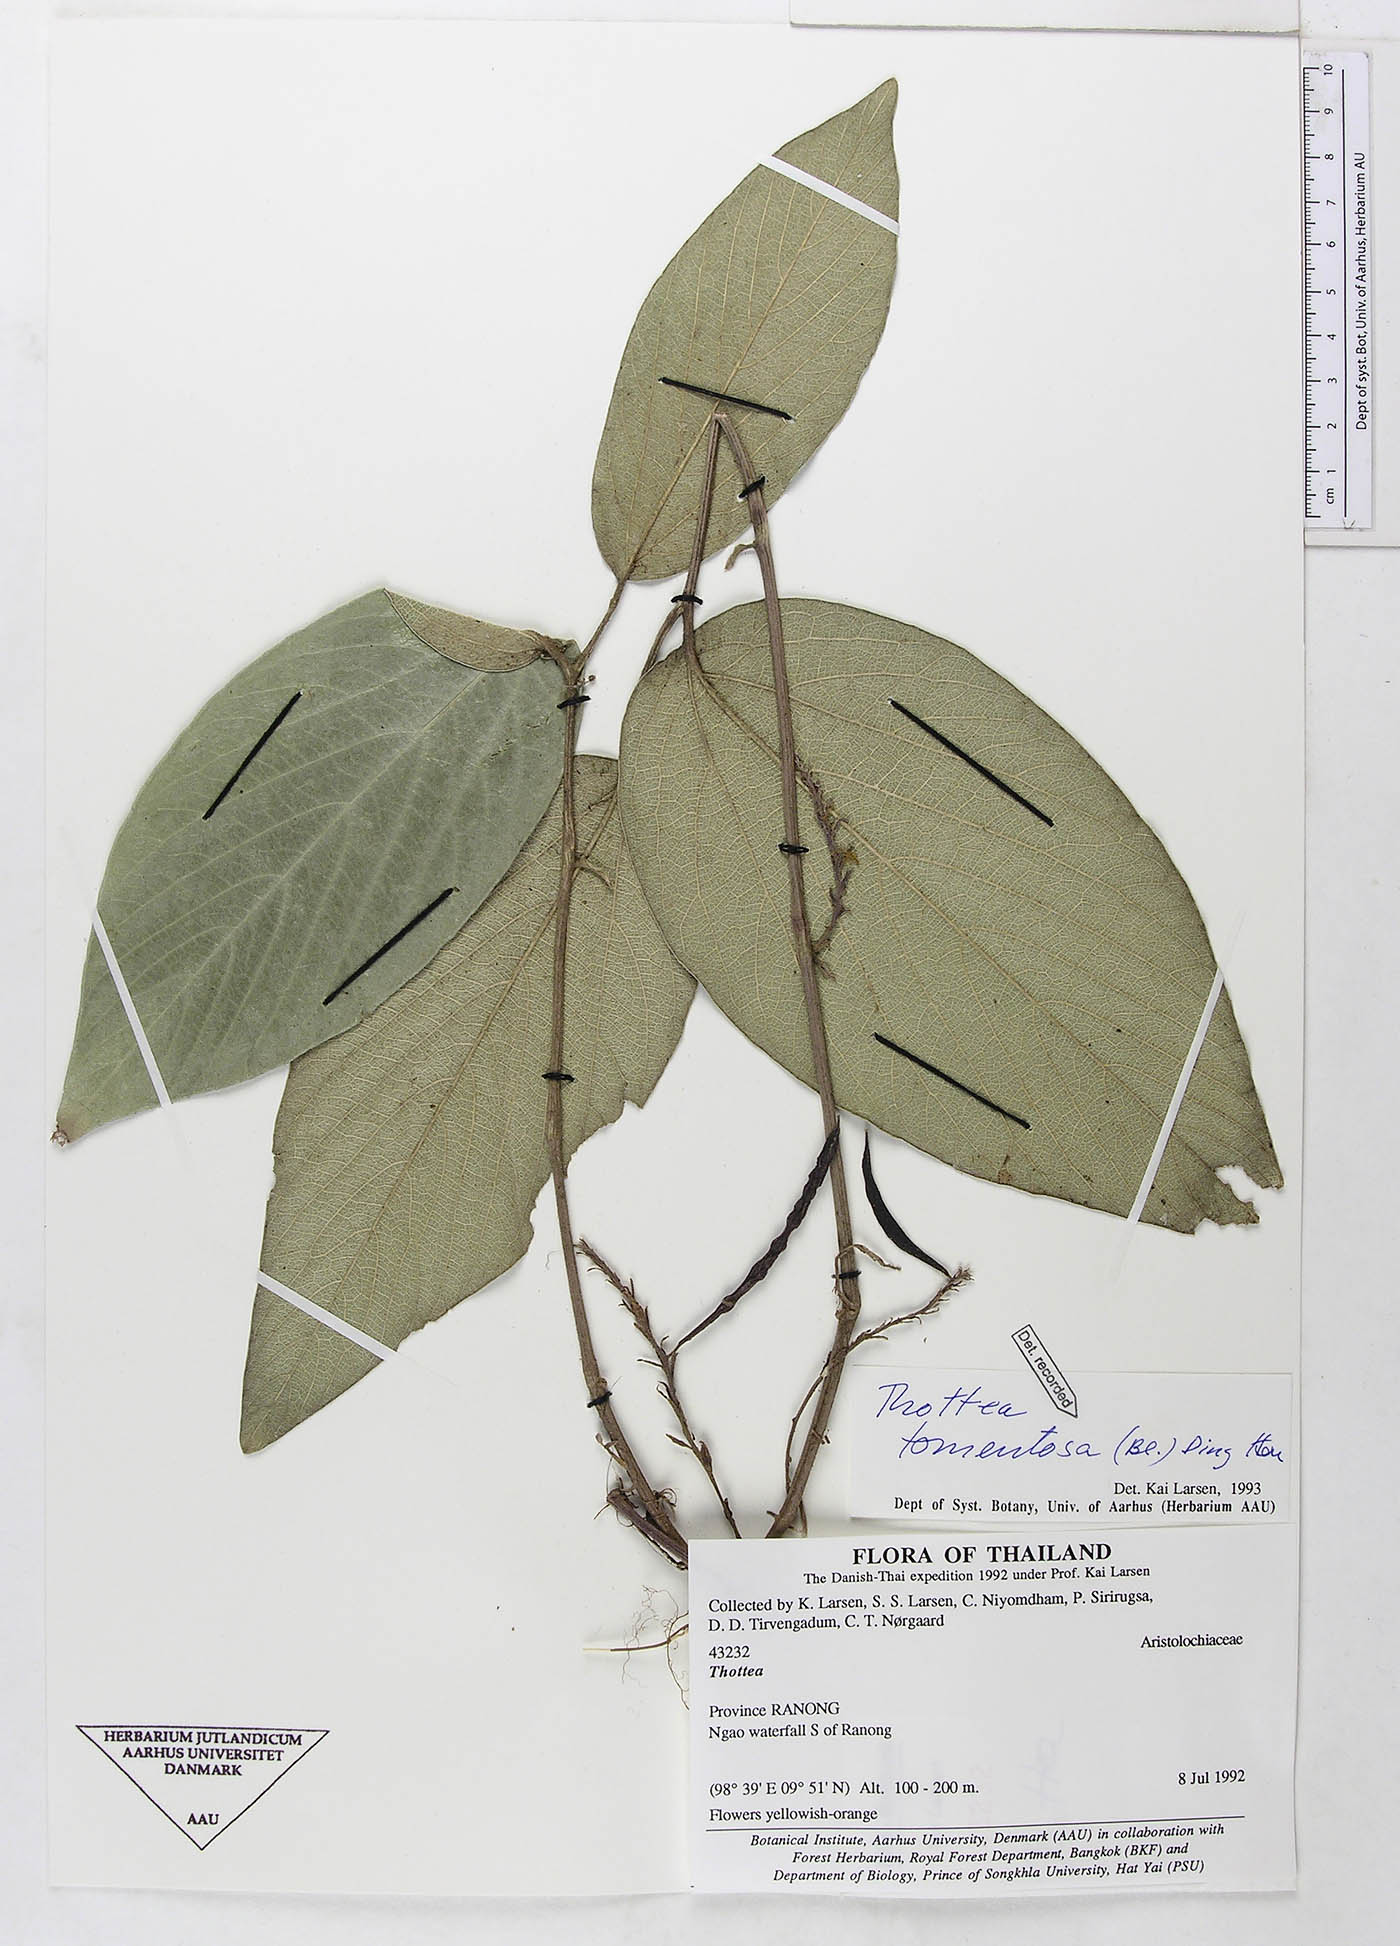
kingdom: Plantae
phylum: Tracheophyta
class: Magnoliopsida
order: Piperales
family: Aristolochiaceae
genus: Thottea
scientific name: Thottea tomentosa
